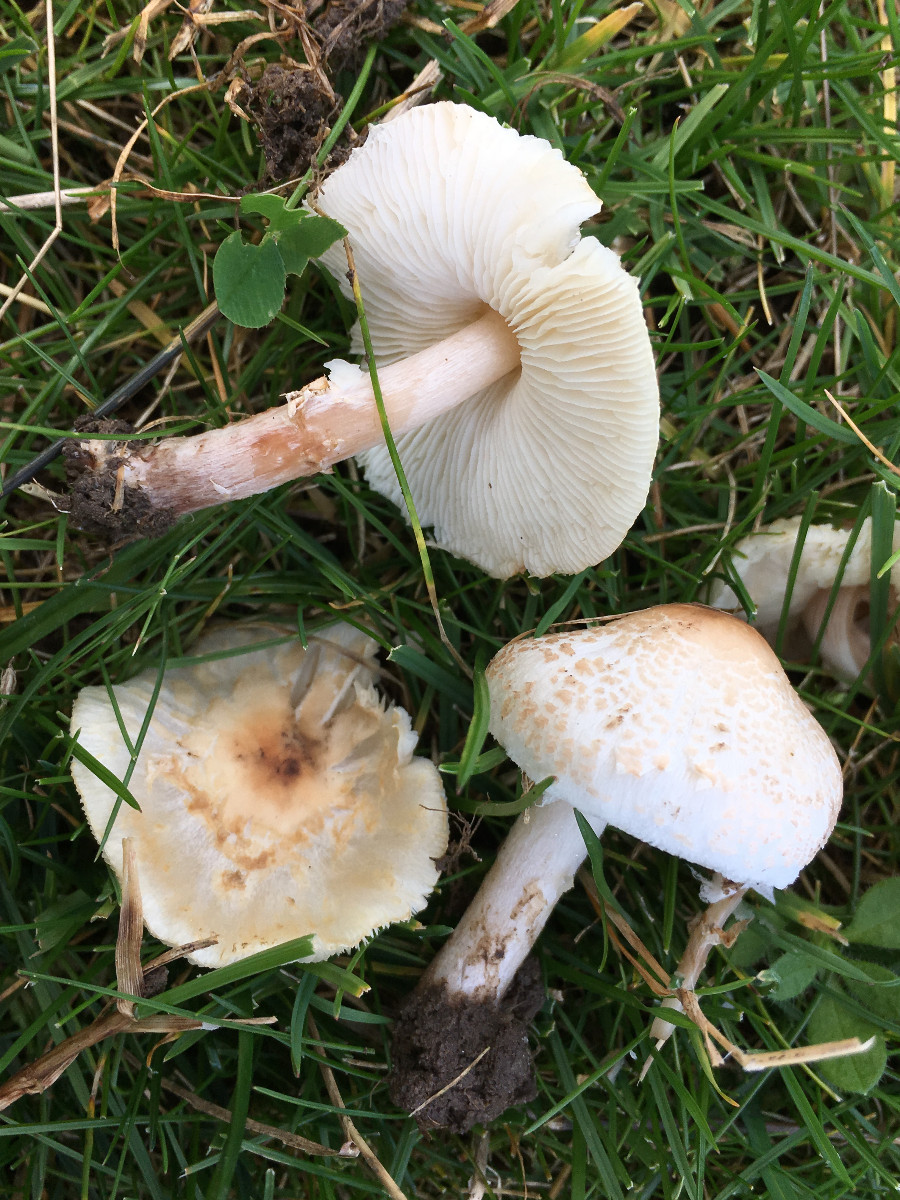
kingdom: Fungi
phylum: Basidiomycota
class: Agaricomycetes
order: Agaricales
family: Agaricaceae
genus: Lepiota
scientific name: Lepiota cristata
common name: stinkende parasolhat
